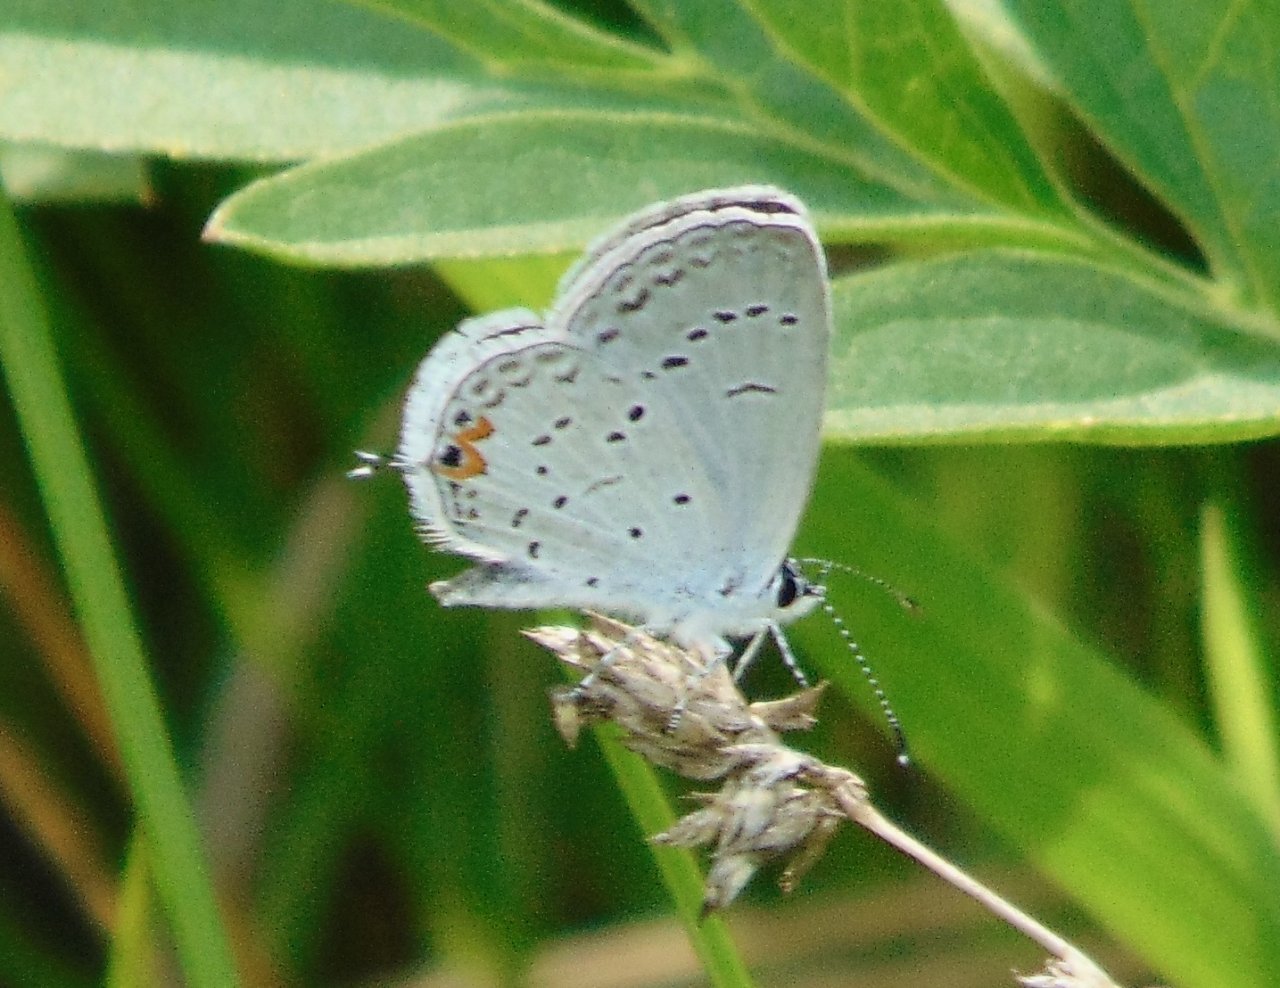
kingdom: Animalia
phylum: Arthropoda
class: Insecta
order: Lepidoptera
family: Lycaenidae
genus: Elkalyce
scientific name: Elkalyce comyntas
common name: Eastern Tailed-Blue
